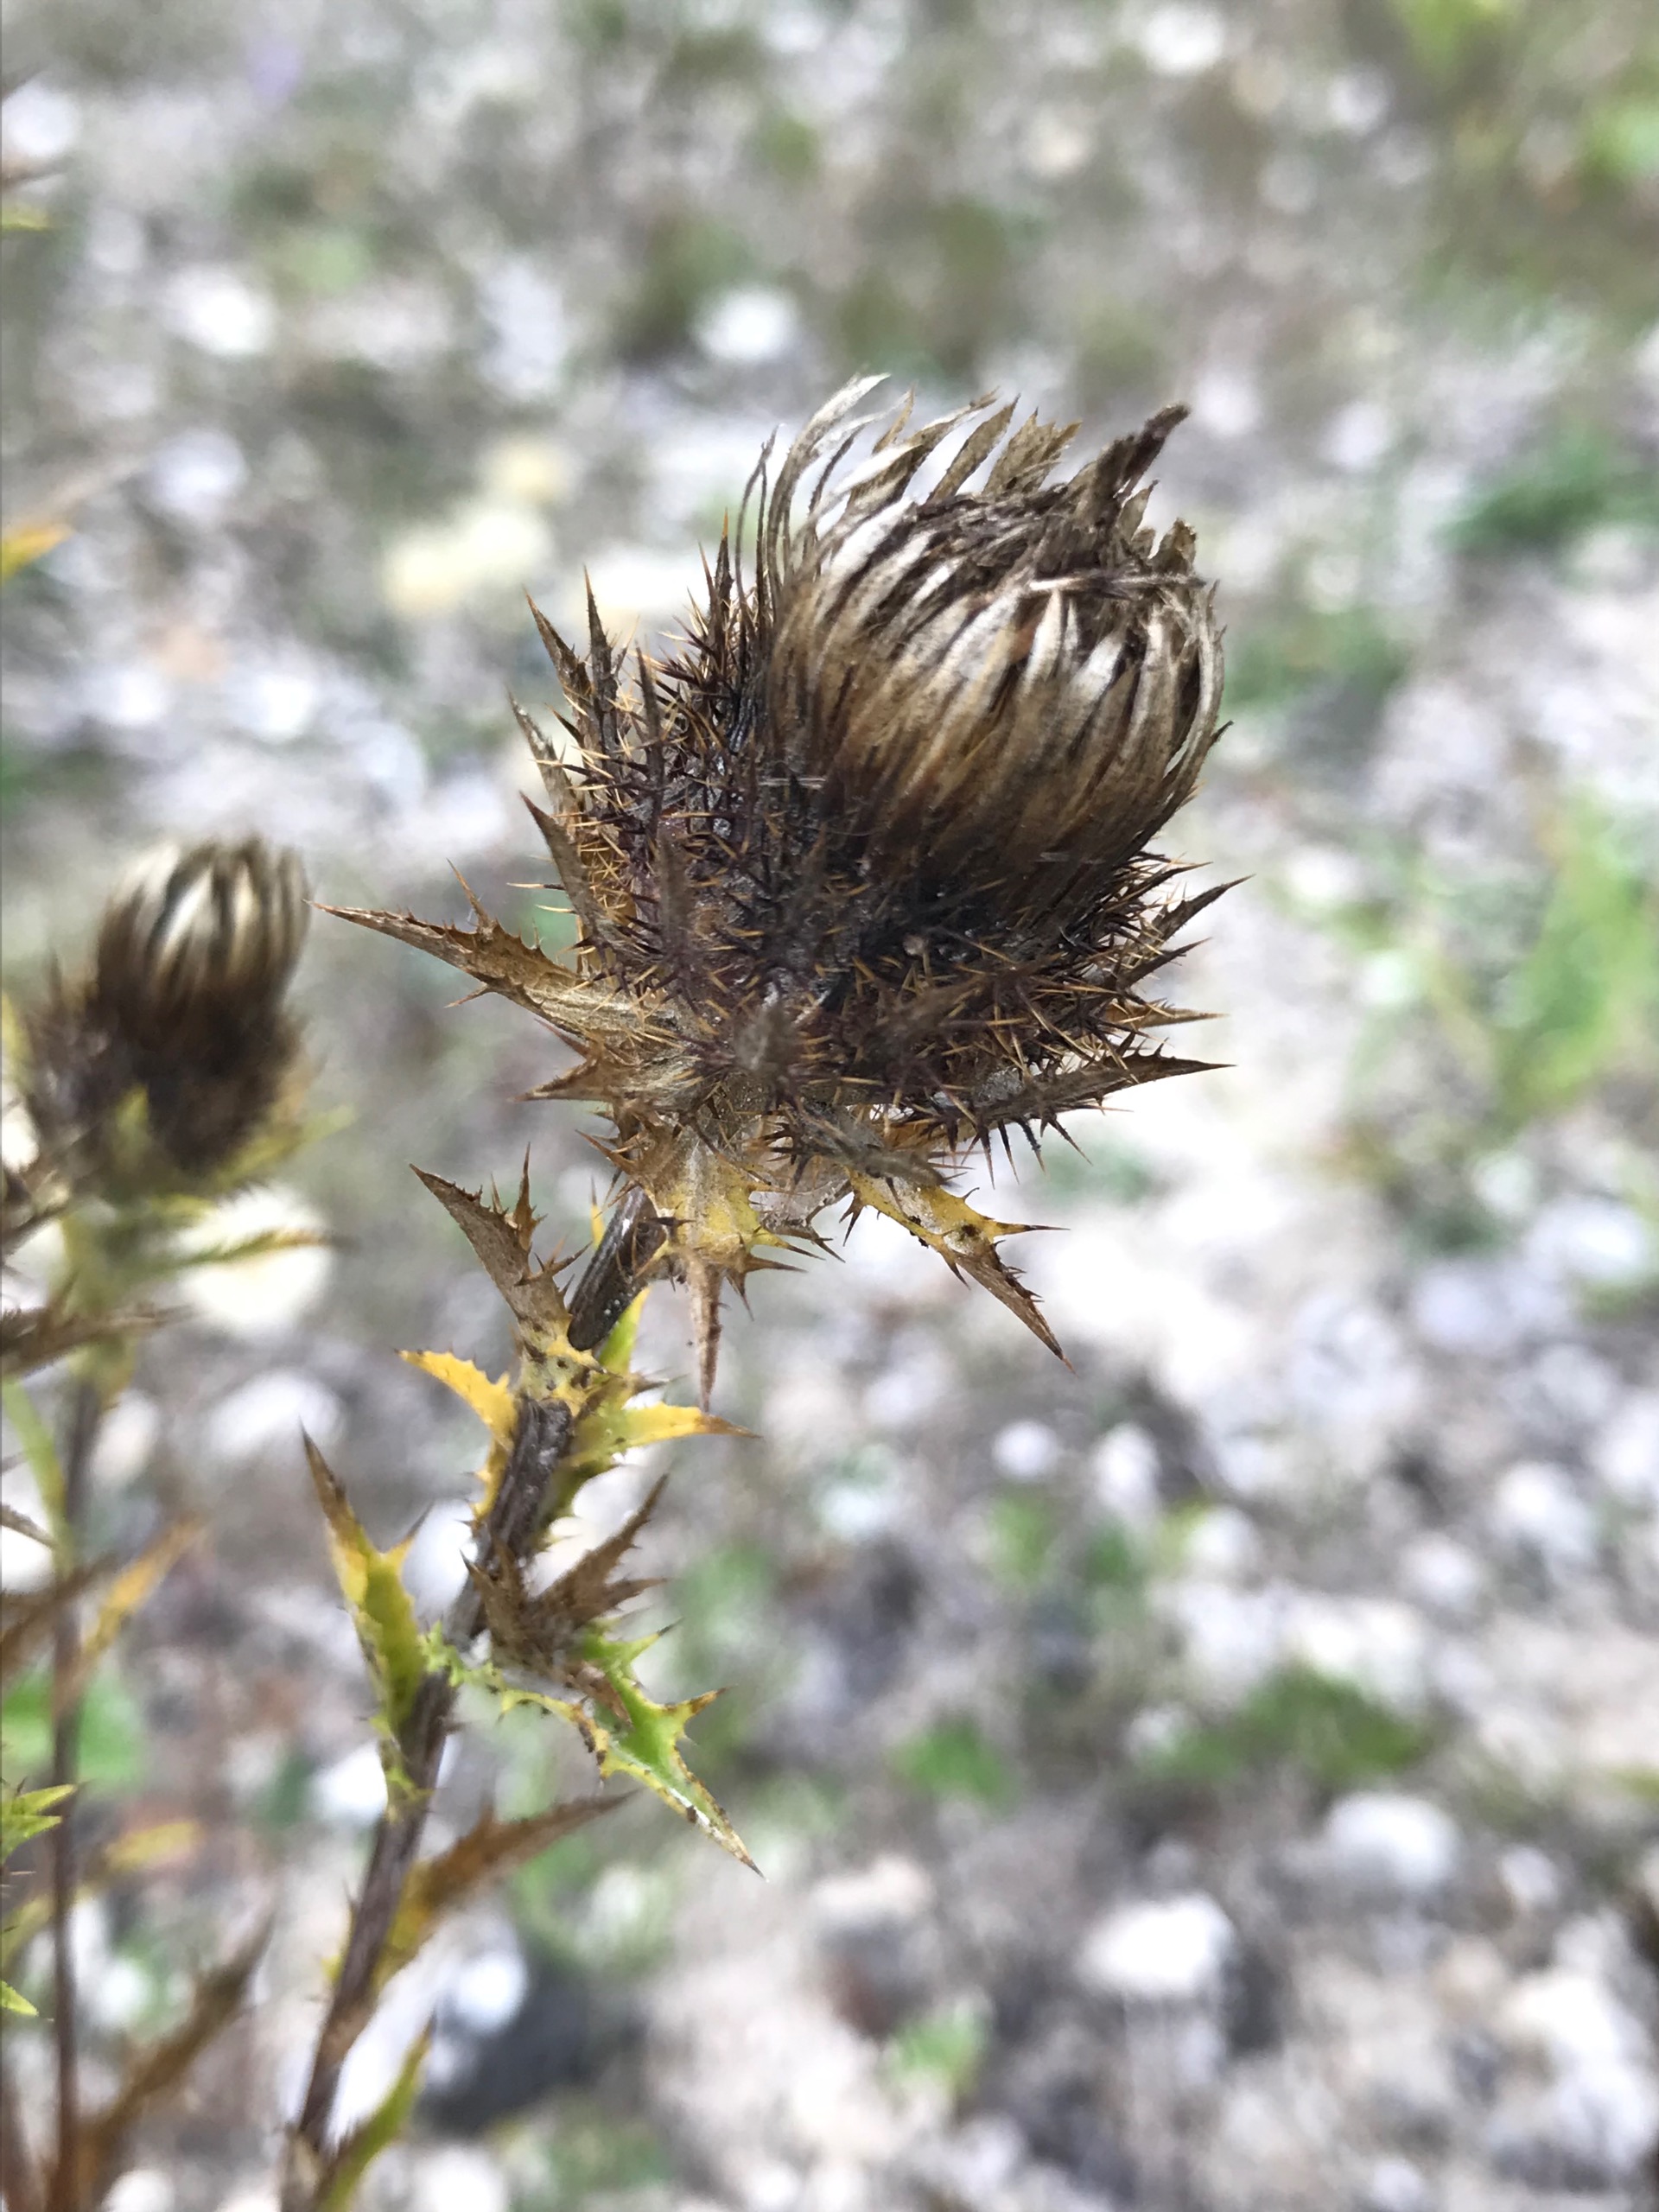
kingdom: Plantae
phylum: Tracheophyta
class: Magnoliopsida
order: Asterales
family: Asteraceae
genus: Carlina
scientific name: Carlina vulgaris
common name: Bakketidsel
